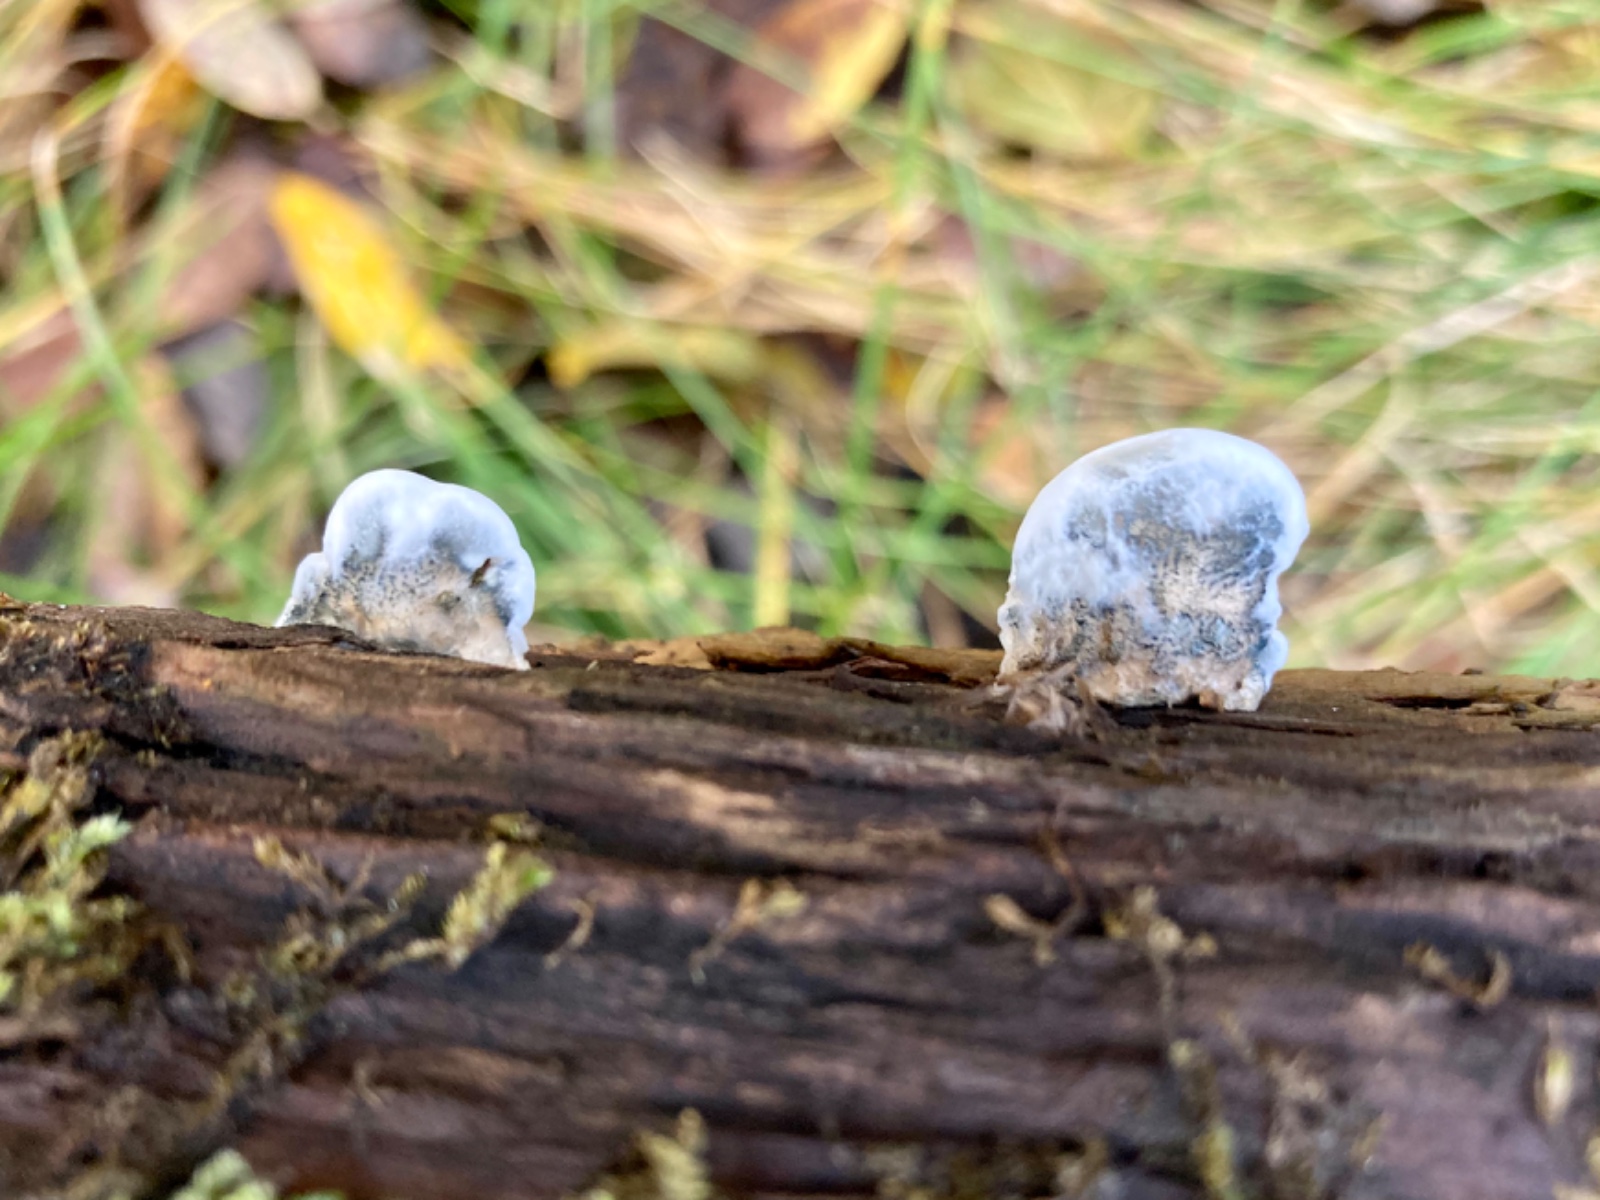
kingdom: Fungi
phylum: Basidiomycota
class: Agaricomycetes
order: Polyporales
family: Polyporaceae
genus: Cyanosporus
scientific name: Cyanosporus alni
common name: blegblå kødporesvamp
